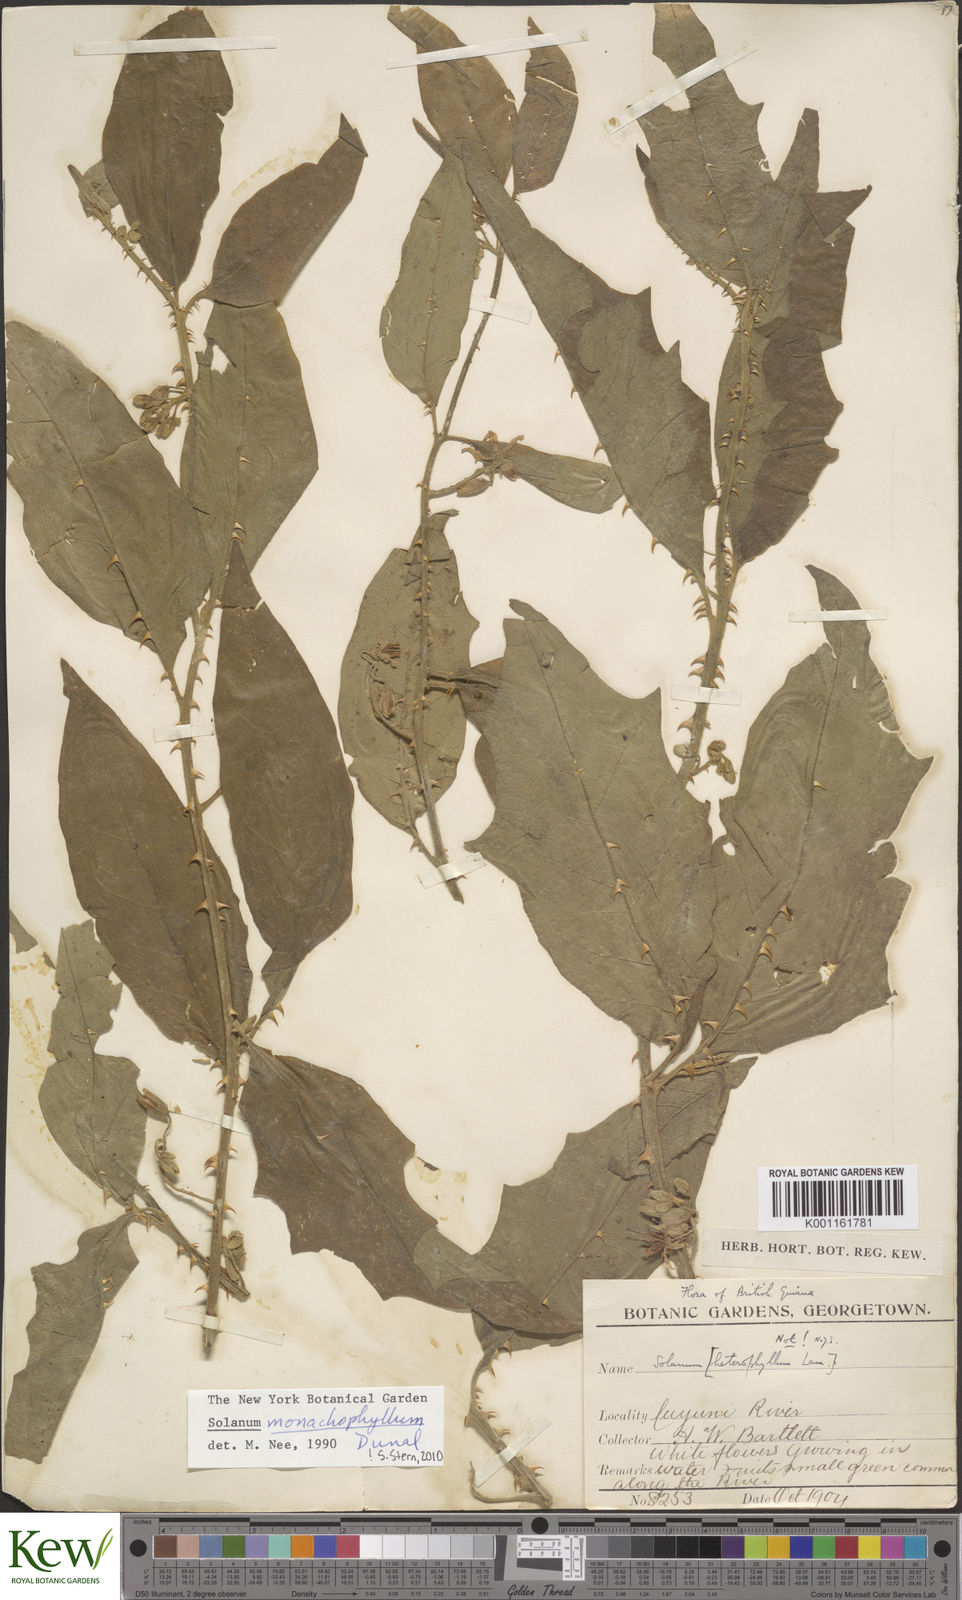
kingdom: Plantae
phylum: Tracheophyta
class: Magnoliopsida
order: Solanales
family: Solanaceae
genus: Solanum
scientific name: Solanum monachophyllum
